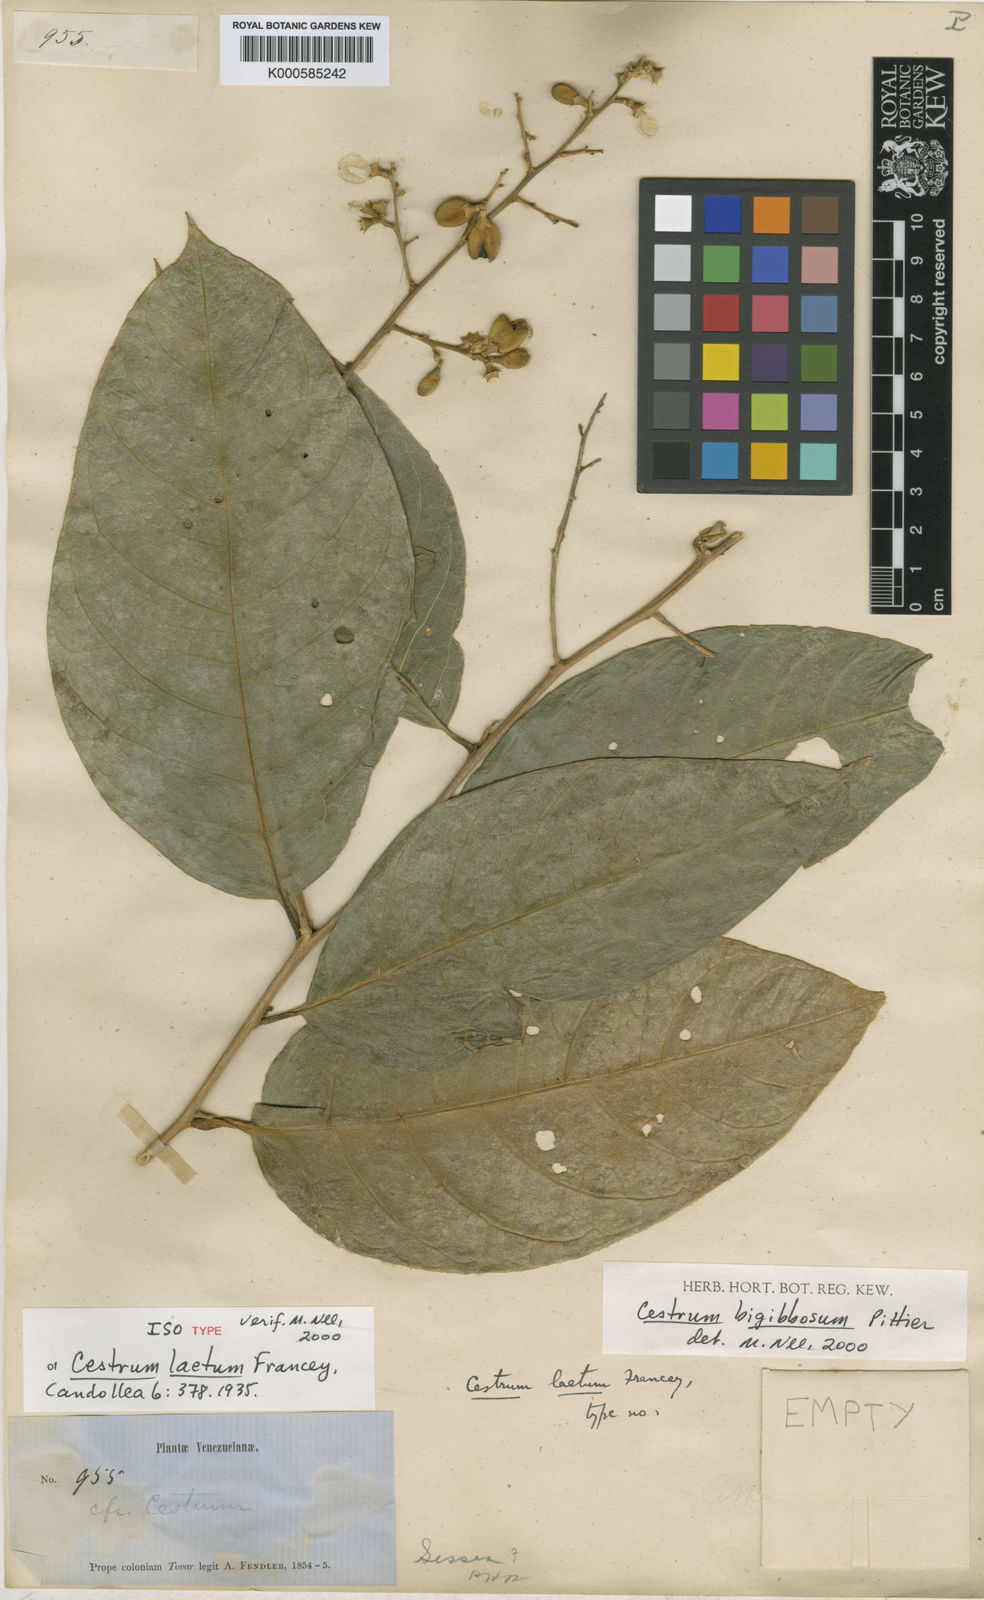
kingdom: Plantae
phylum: Tracheophyta
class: Magnoliopsida
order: Solanales
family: Solanaceae
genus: Cestrum
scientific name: Cestrum bigibbosum
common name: Bigibbous cestrum
